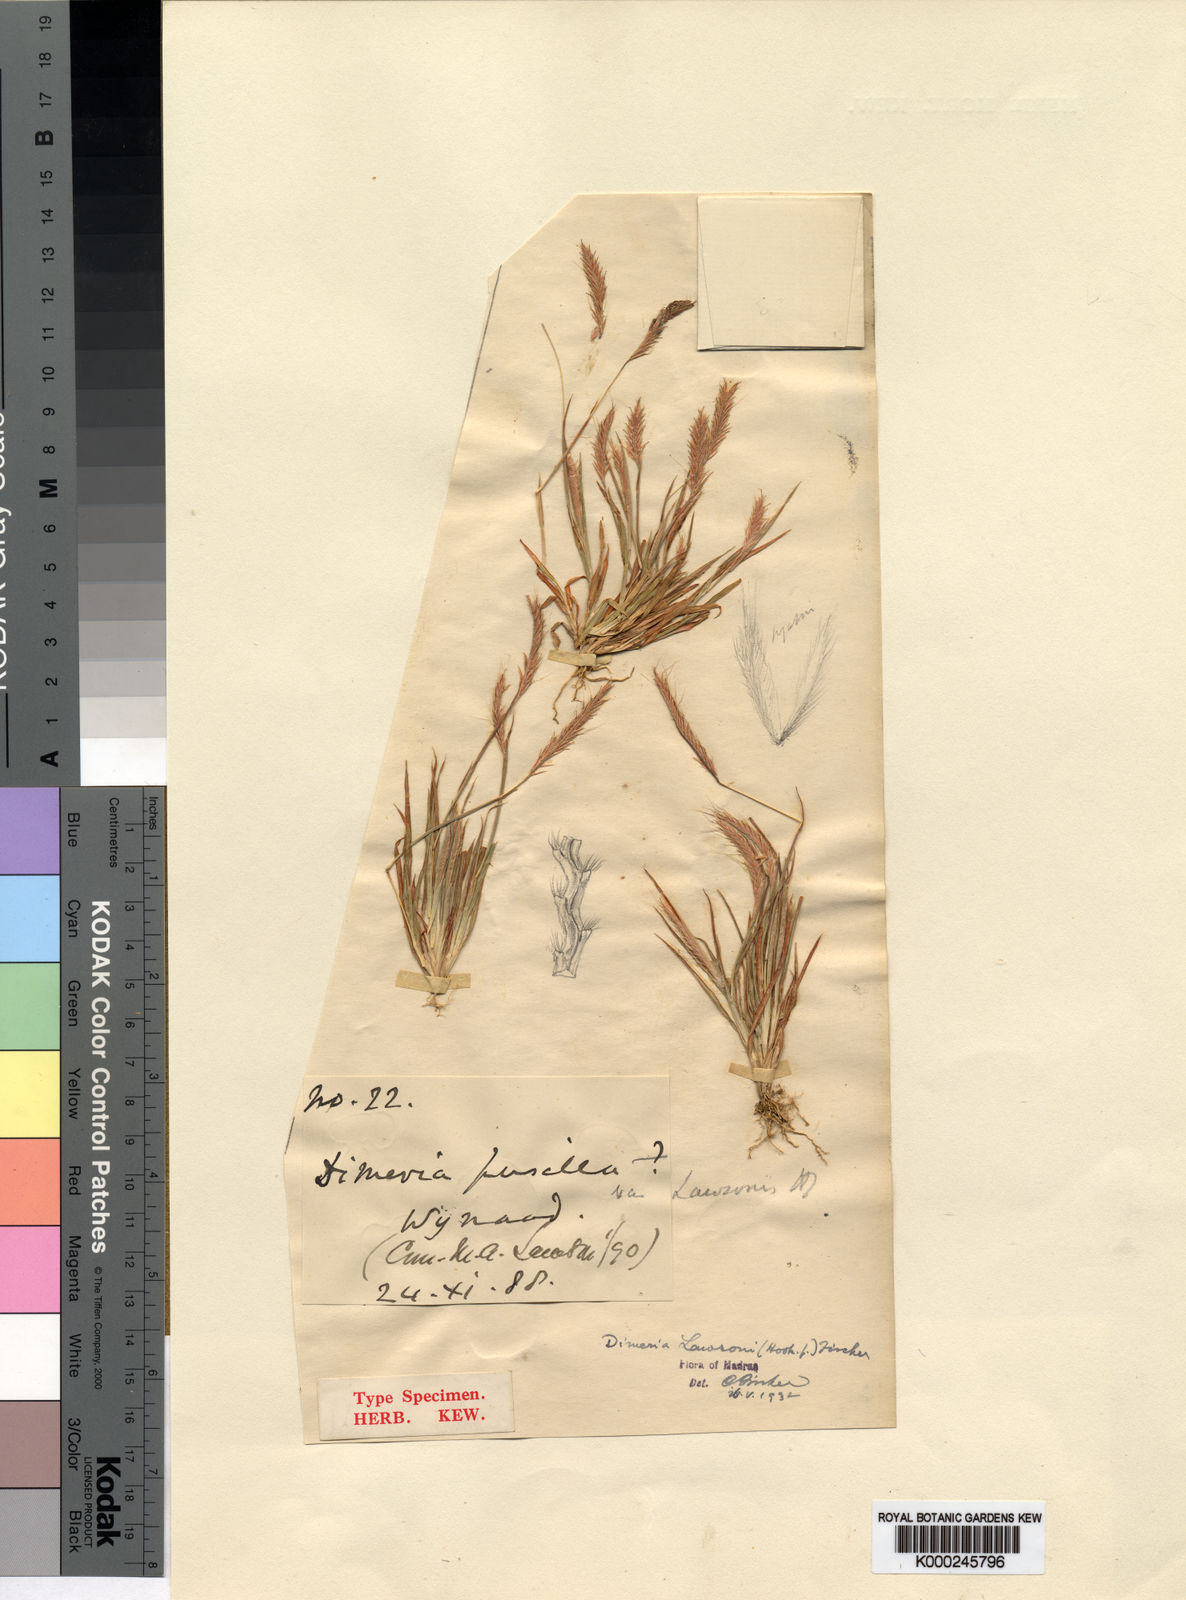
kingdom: Plantae
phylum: Tracheophyta
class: Liliopsida
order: Poales
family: Poaceae
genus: Dimeria
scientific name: Dimeria lawsonii
